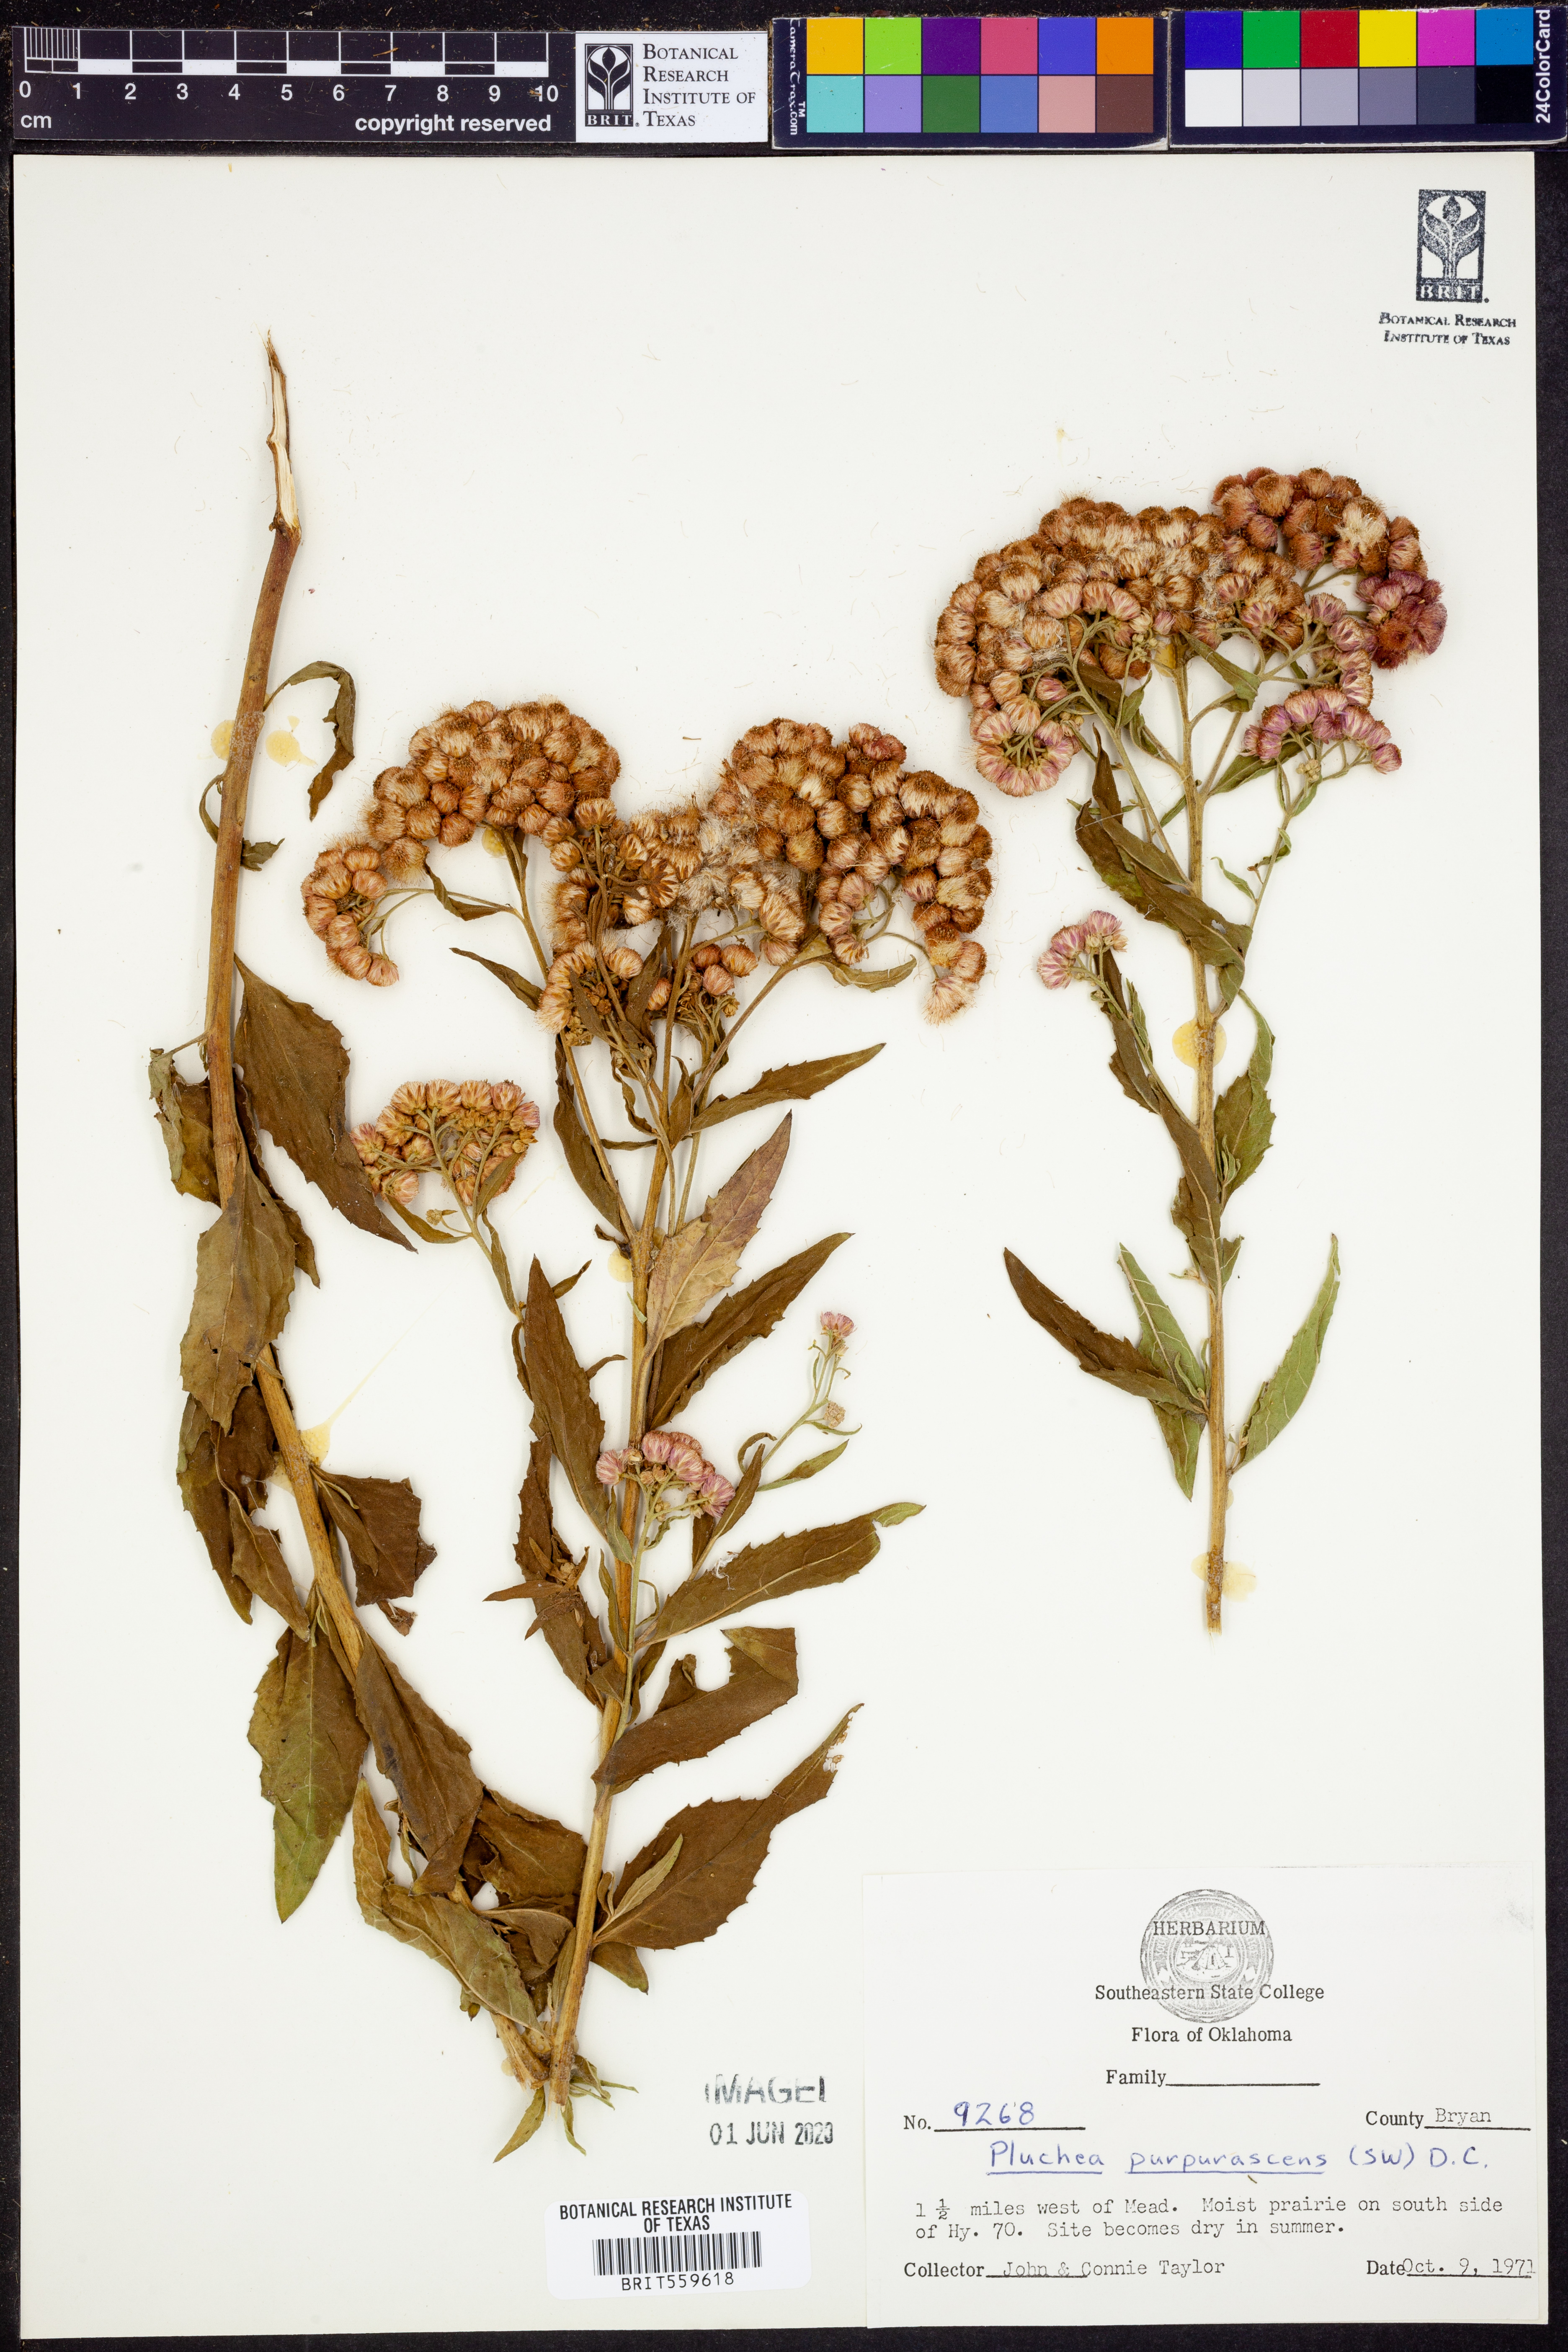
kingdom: Plantae
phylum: Tracheophyta
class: Magnoliopsida
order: Asterales
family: Asteraceae
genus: Pluchea
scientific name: Pluchea odorata
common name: Saltmarsh fleabane
